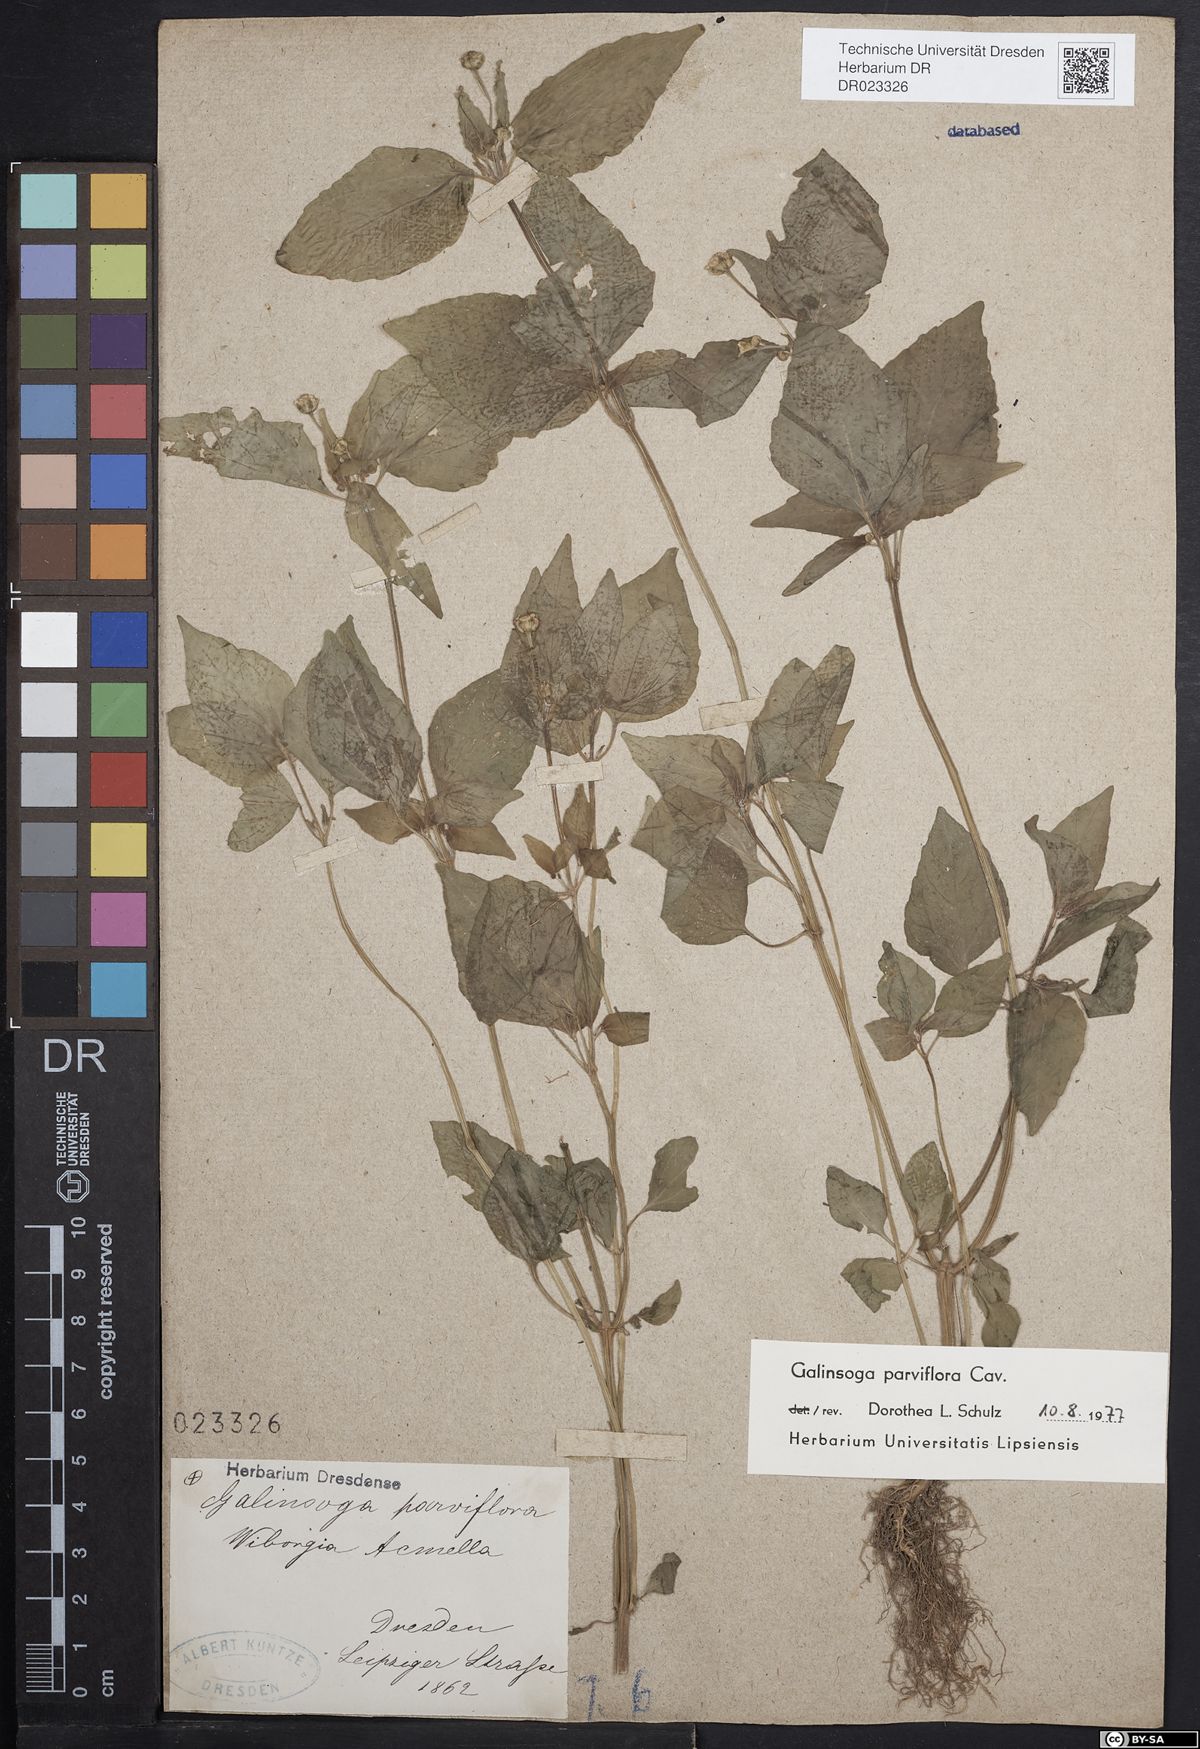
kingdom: Plantae
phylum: Tracheophyta
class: Magnoliopsida
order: Asterales
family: Asteraceae
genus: Galinsoga
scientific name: Galinsoga parviflora
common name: Gallant soldier
